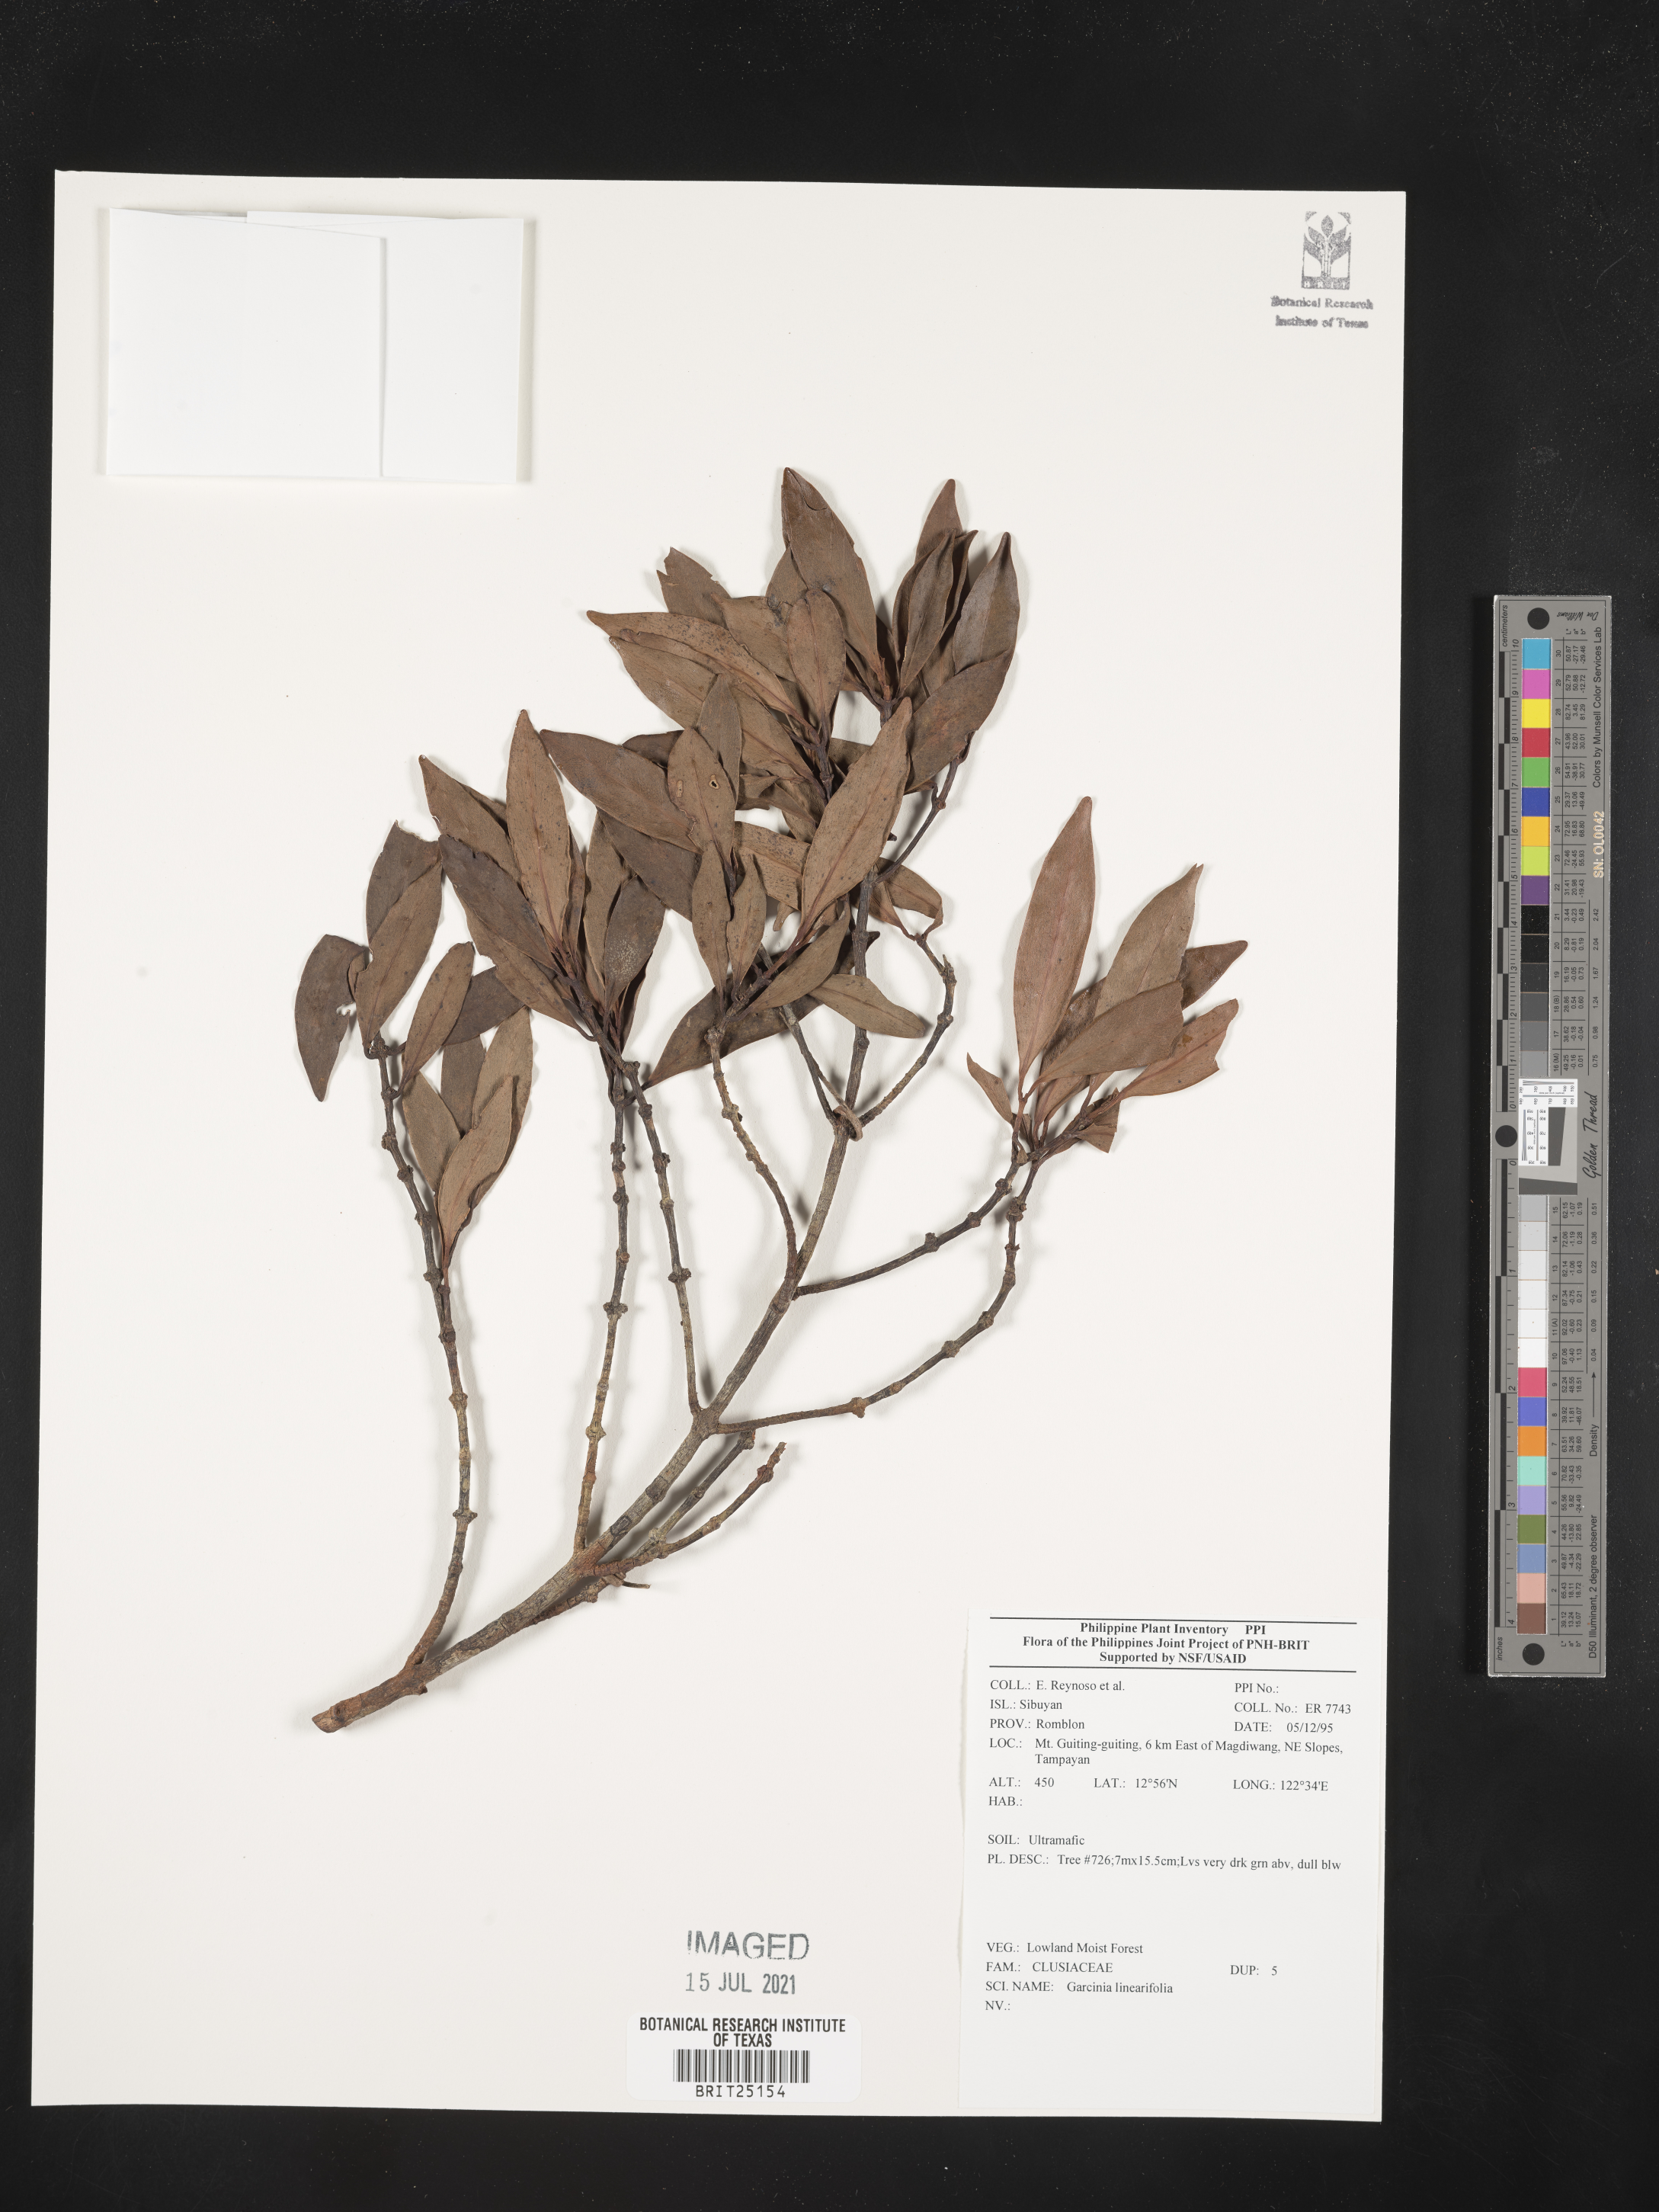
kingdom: Plantae
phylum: Tracheophyta
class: Magnoliopsida
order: Malpighiales
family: Clusiaceae
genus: Garcinia
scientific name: Garcinia linearifolia
